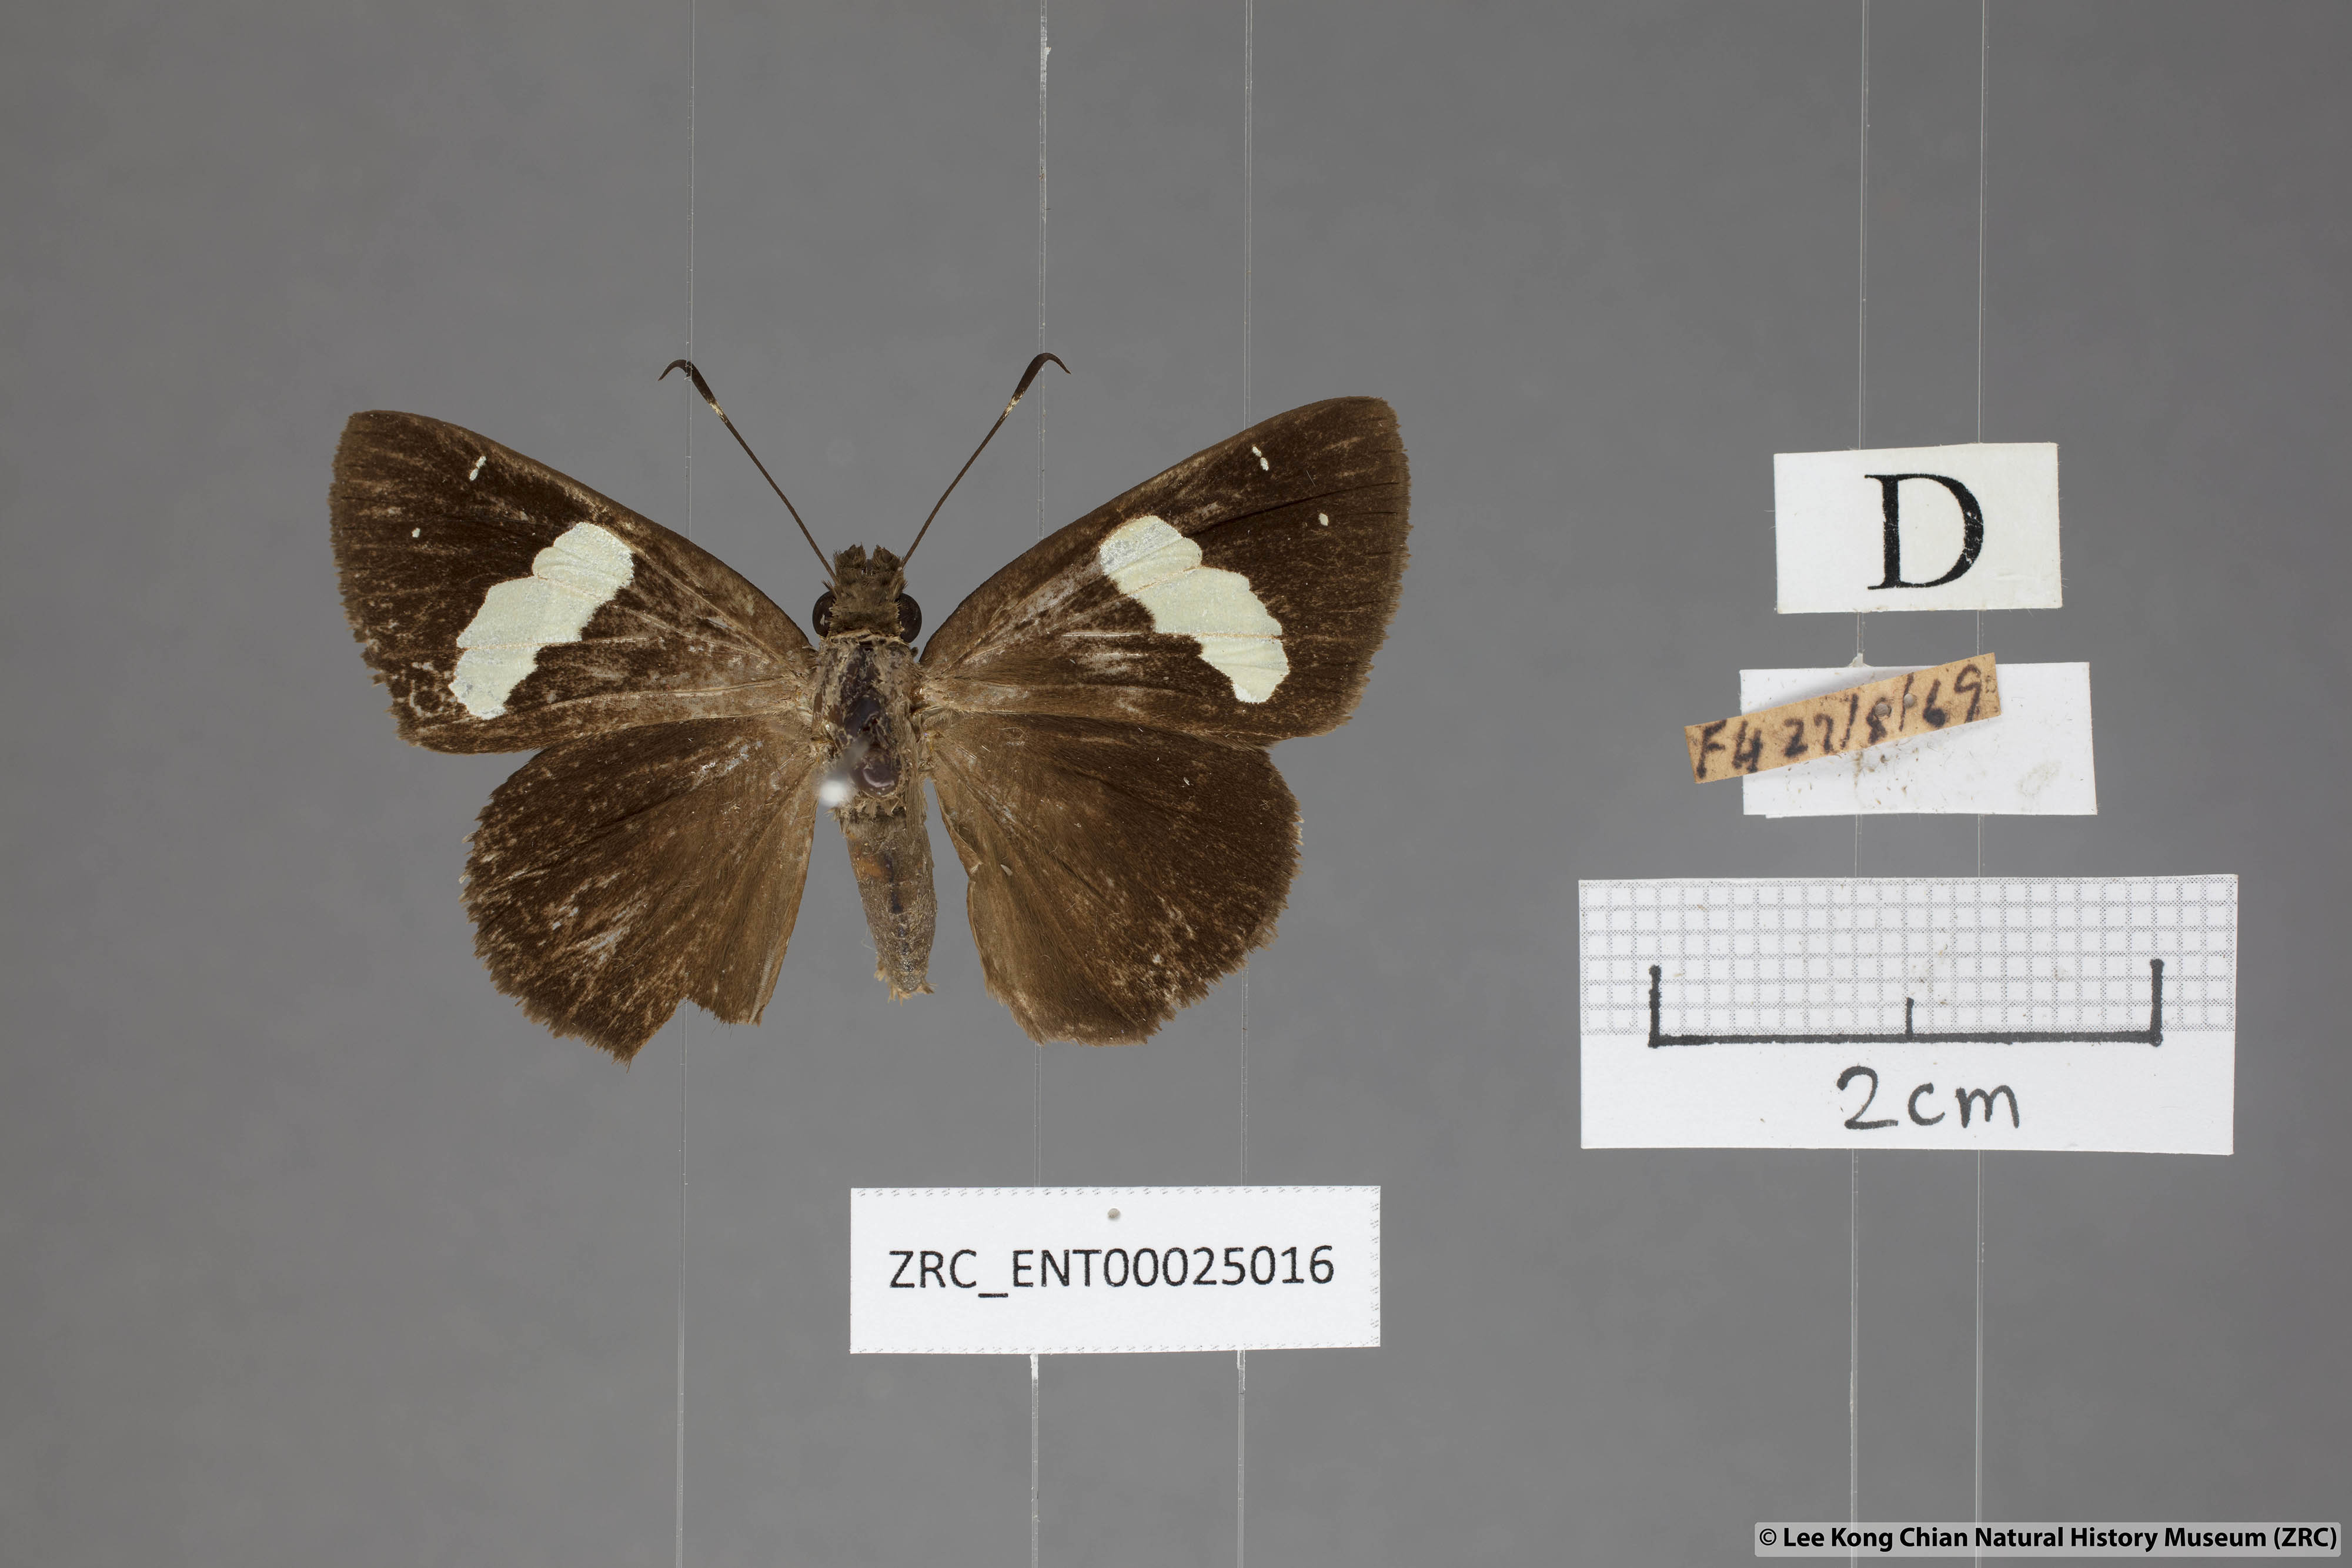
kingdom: Animalia
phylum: Arthropoda
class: Insecta
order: Lepidoptera
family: Hesperiidae
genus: Notocrypta
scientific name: Notocrypta feisthamelii
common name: Spotted demon
